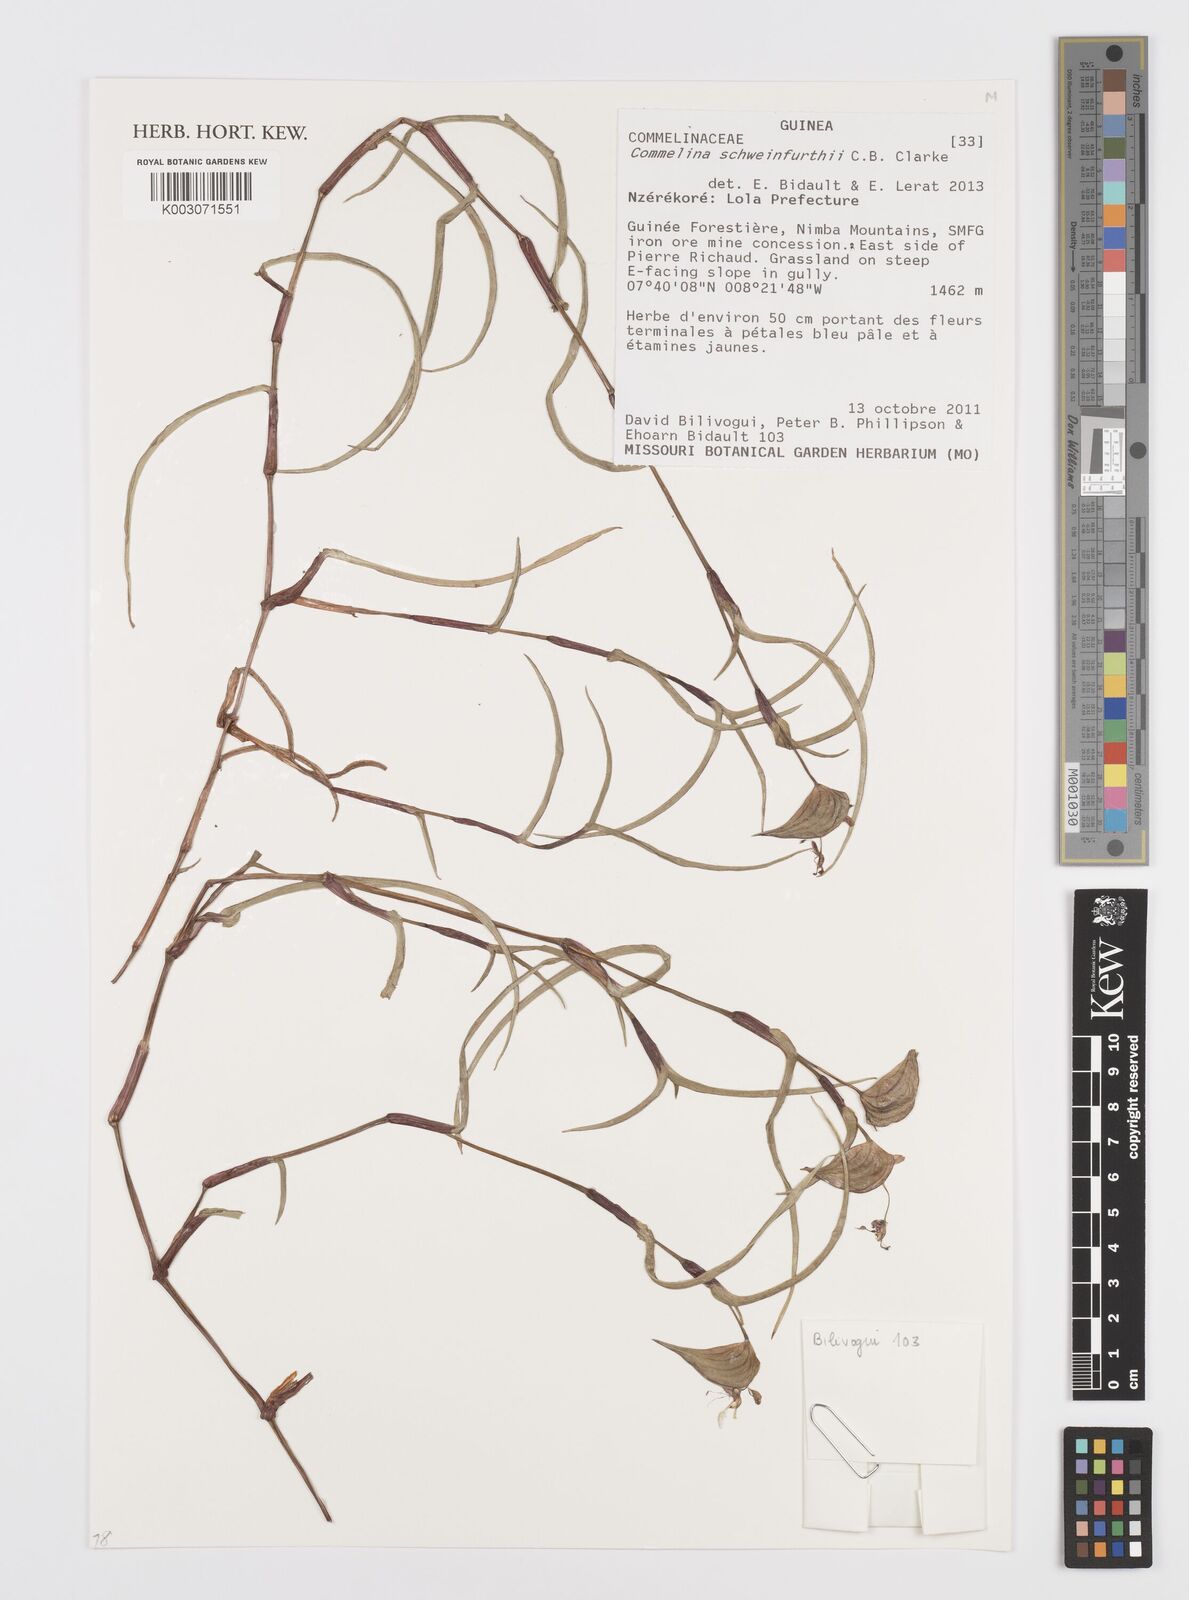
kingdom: Plantae
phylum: Tracheophyta
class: Liliopsida
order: Commelinales
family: Commelinaceae
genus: Commelina
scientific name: Commelina schweinfurthii
